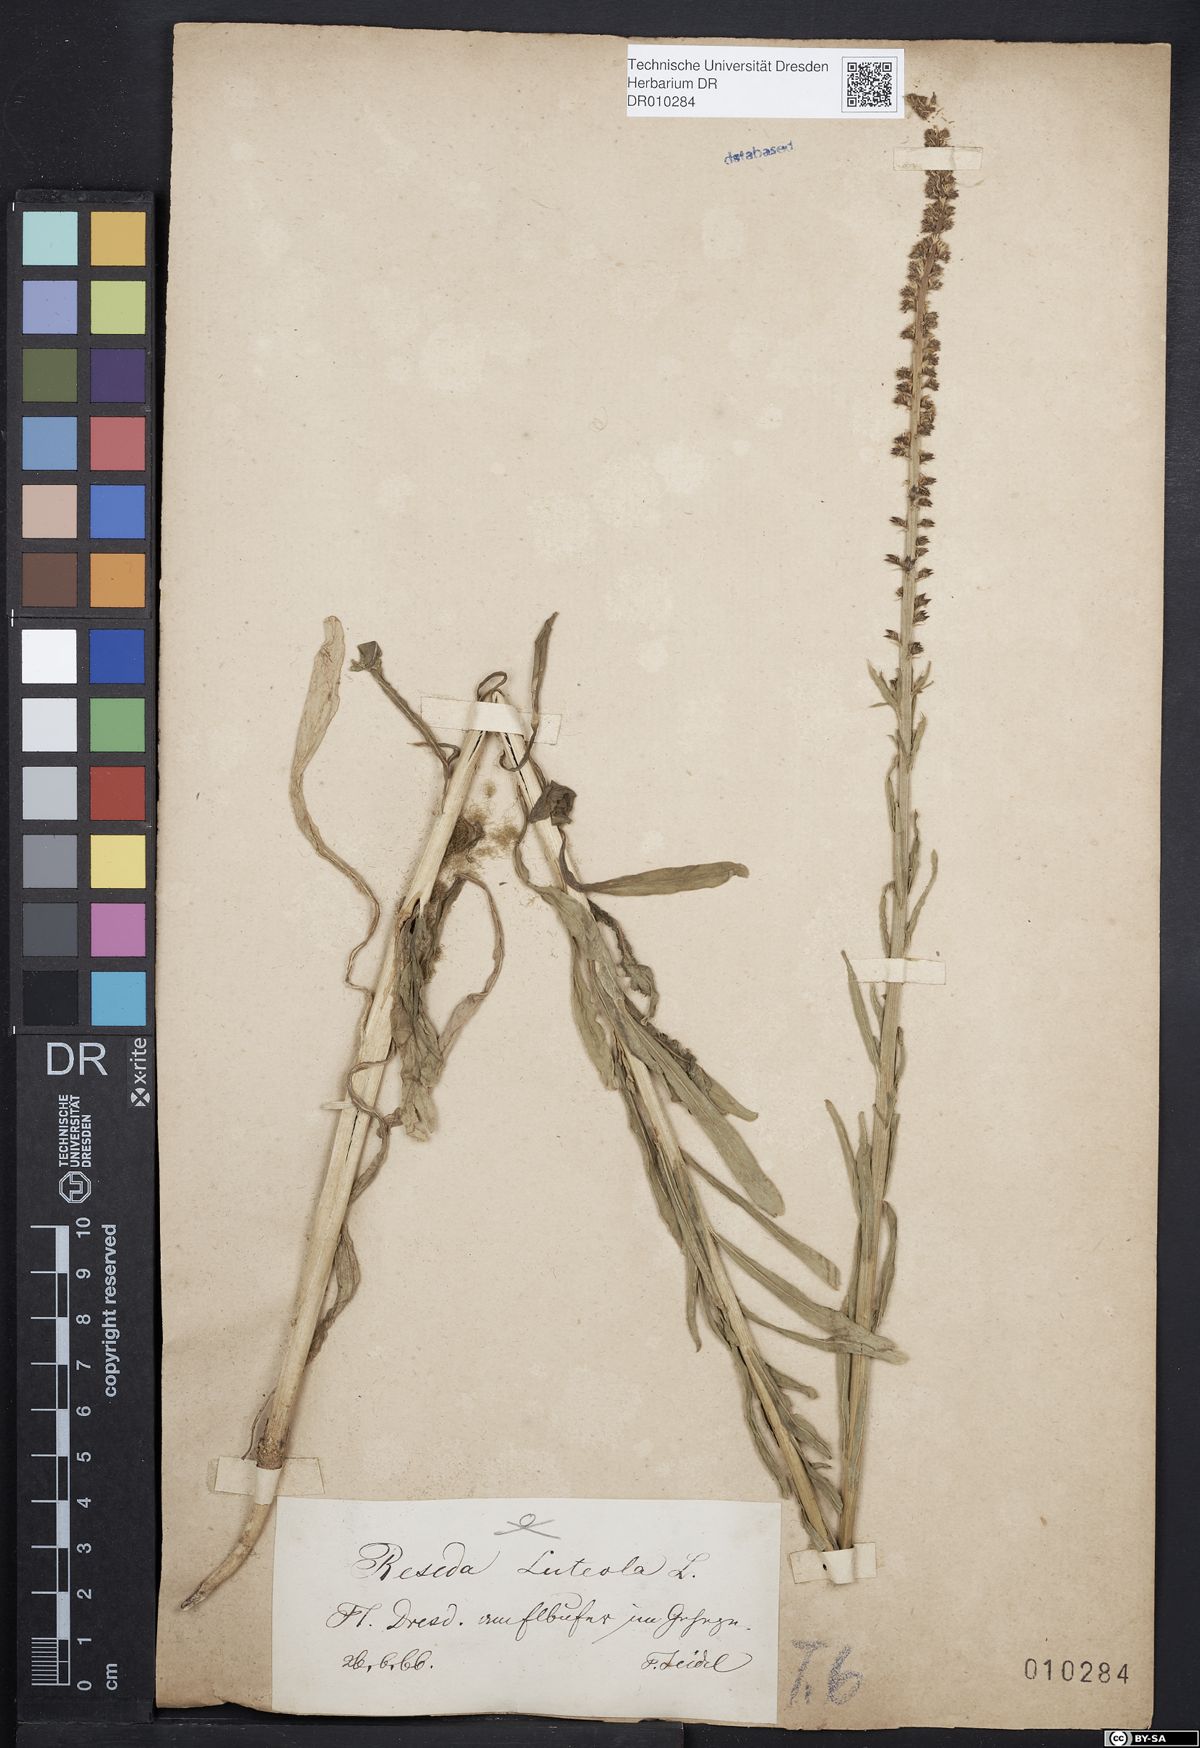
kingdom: Plantae
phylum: Tracheophyta
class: Magnoliopsida
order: Brassicales
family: Resedaceae
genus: Reseda
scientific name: Reseda luteola
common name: Weld
